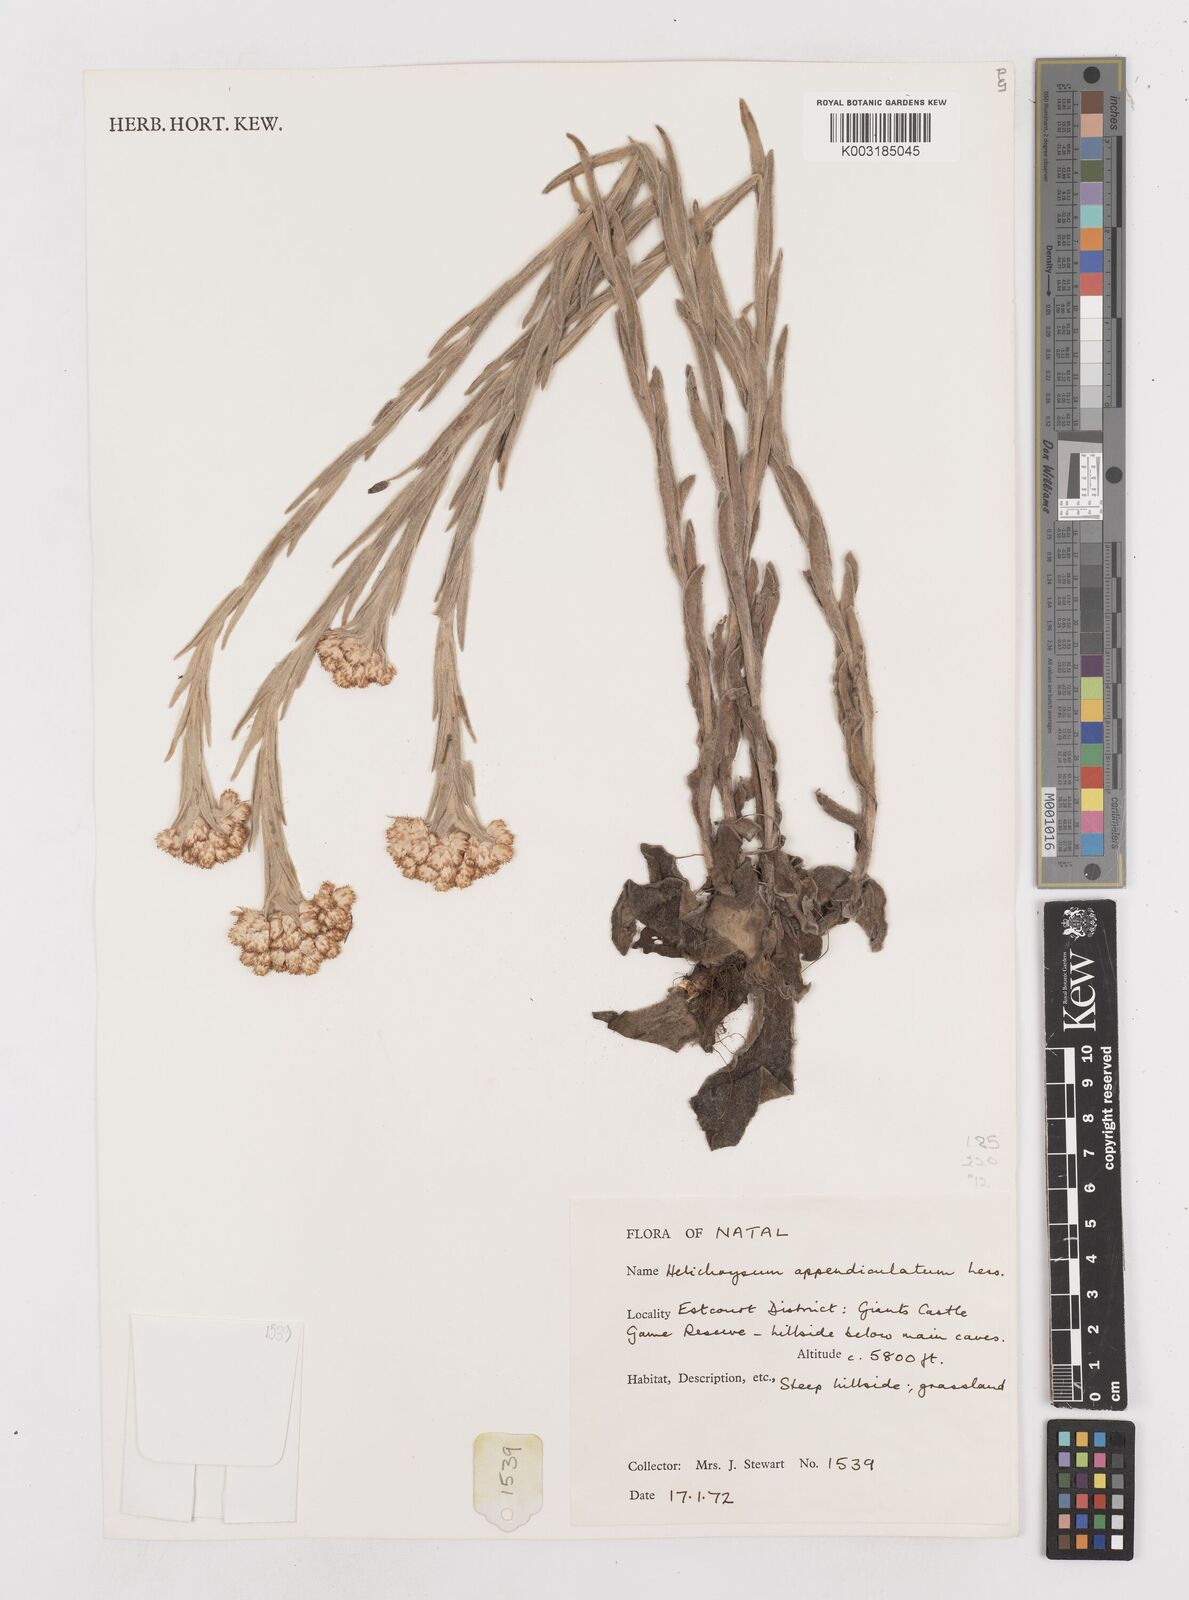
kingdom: Plantae
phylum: Tracheophyta
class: Magnoliopsida
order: Asterales
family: Asteraceae
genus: Helichrysum
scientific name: Helichrysum appendiculatum
